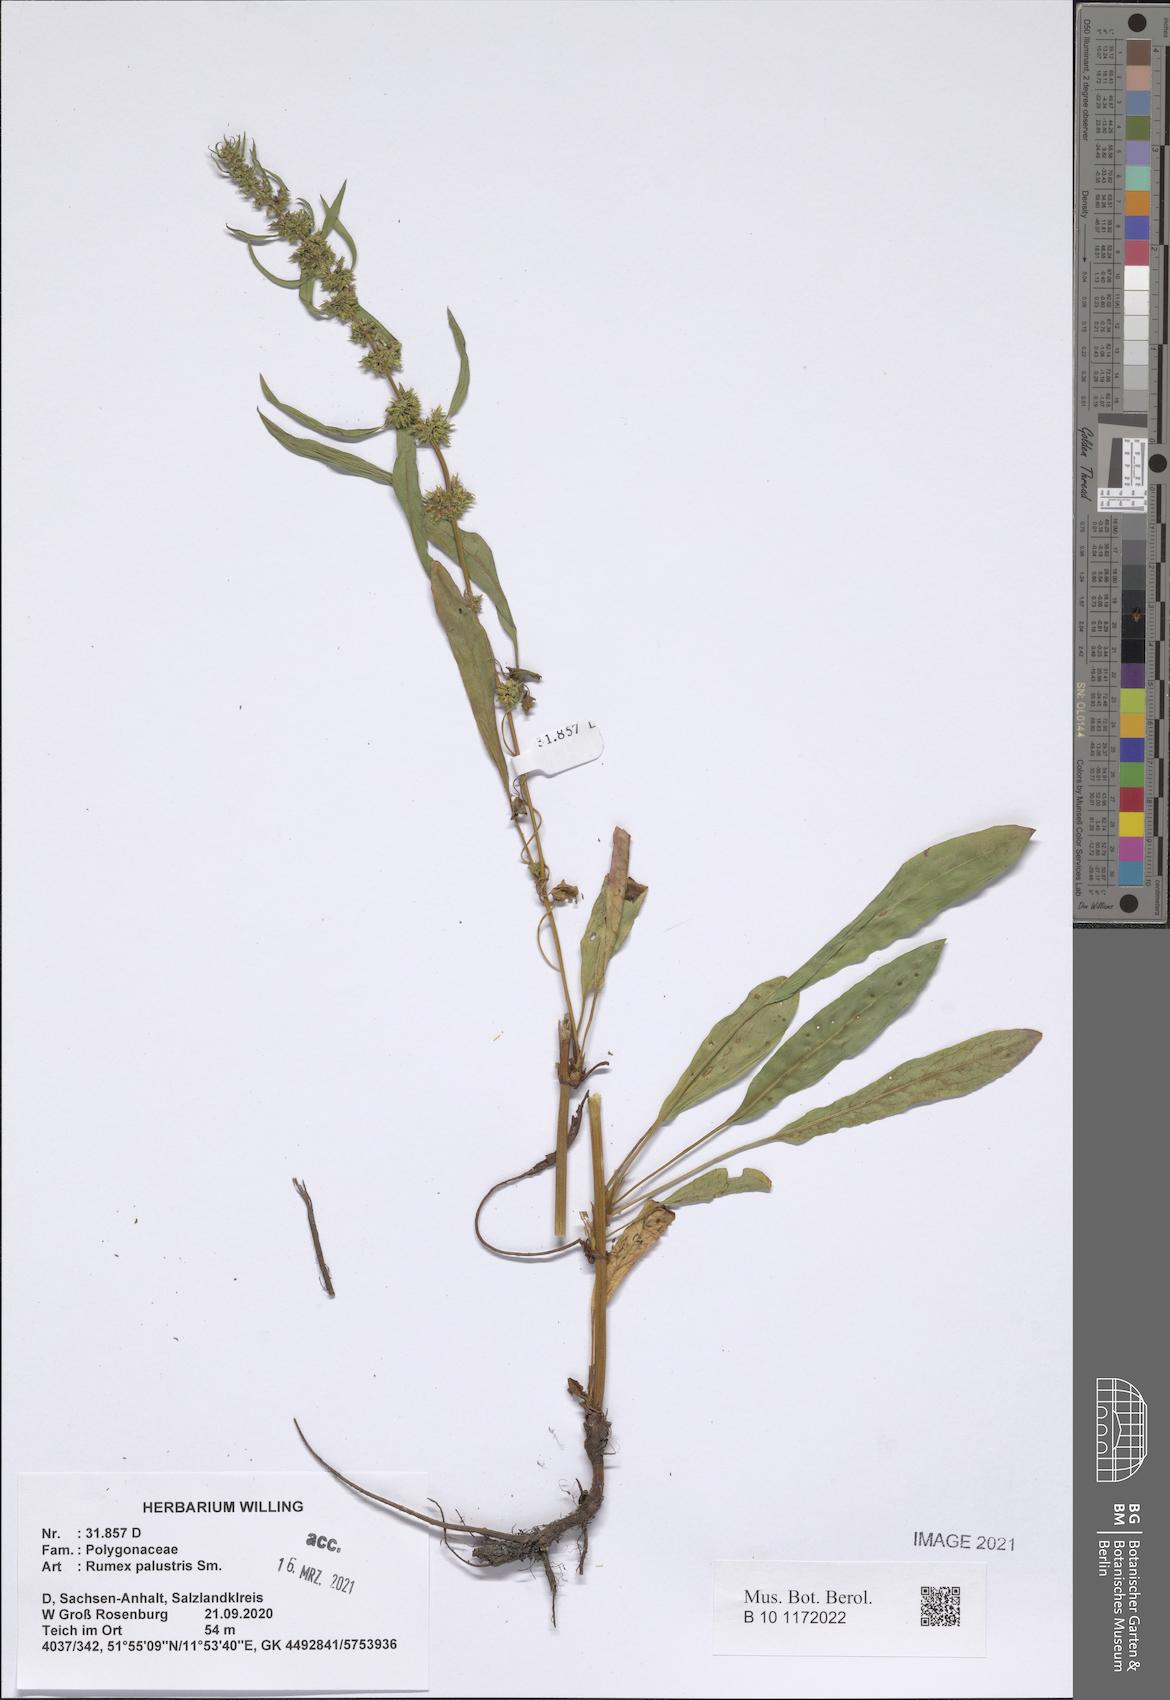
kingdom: Plantae
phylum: Tracheophyta
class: Magnoliopsida
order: Caryophyllales
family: Polygonaceae
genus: Rumex
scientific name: Rumex palustris
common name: Marsh dock
